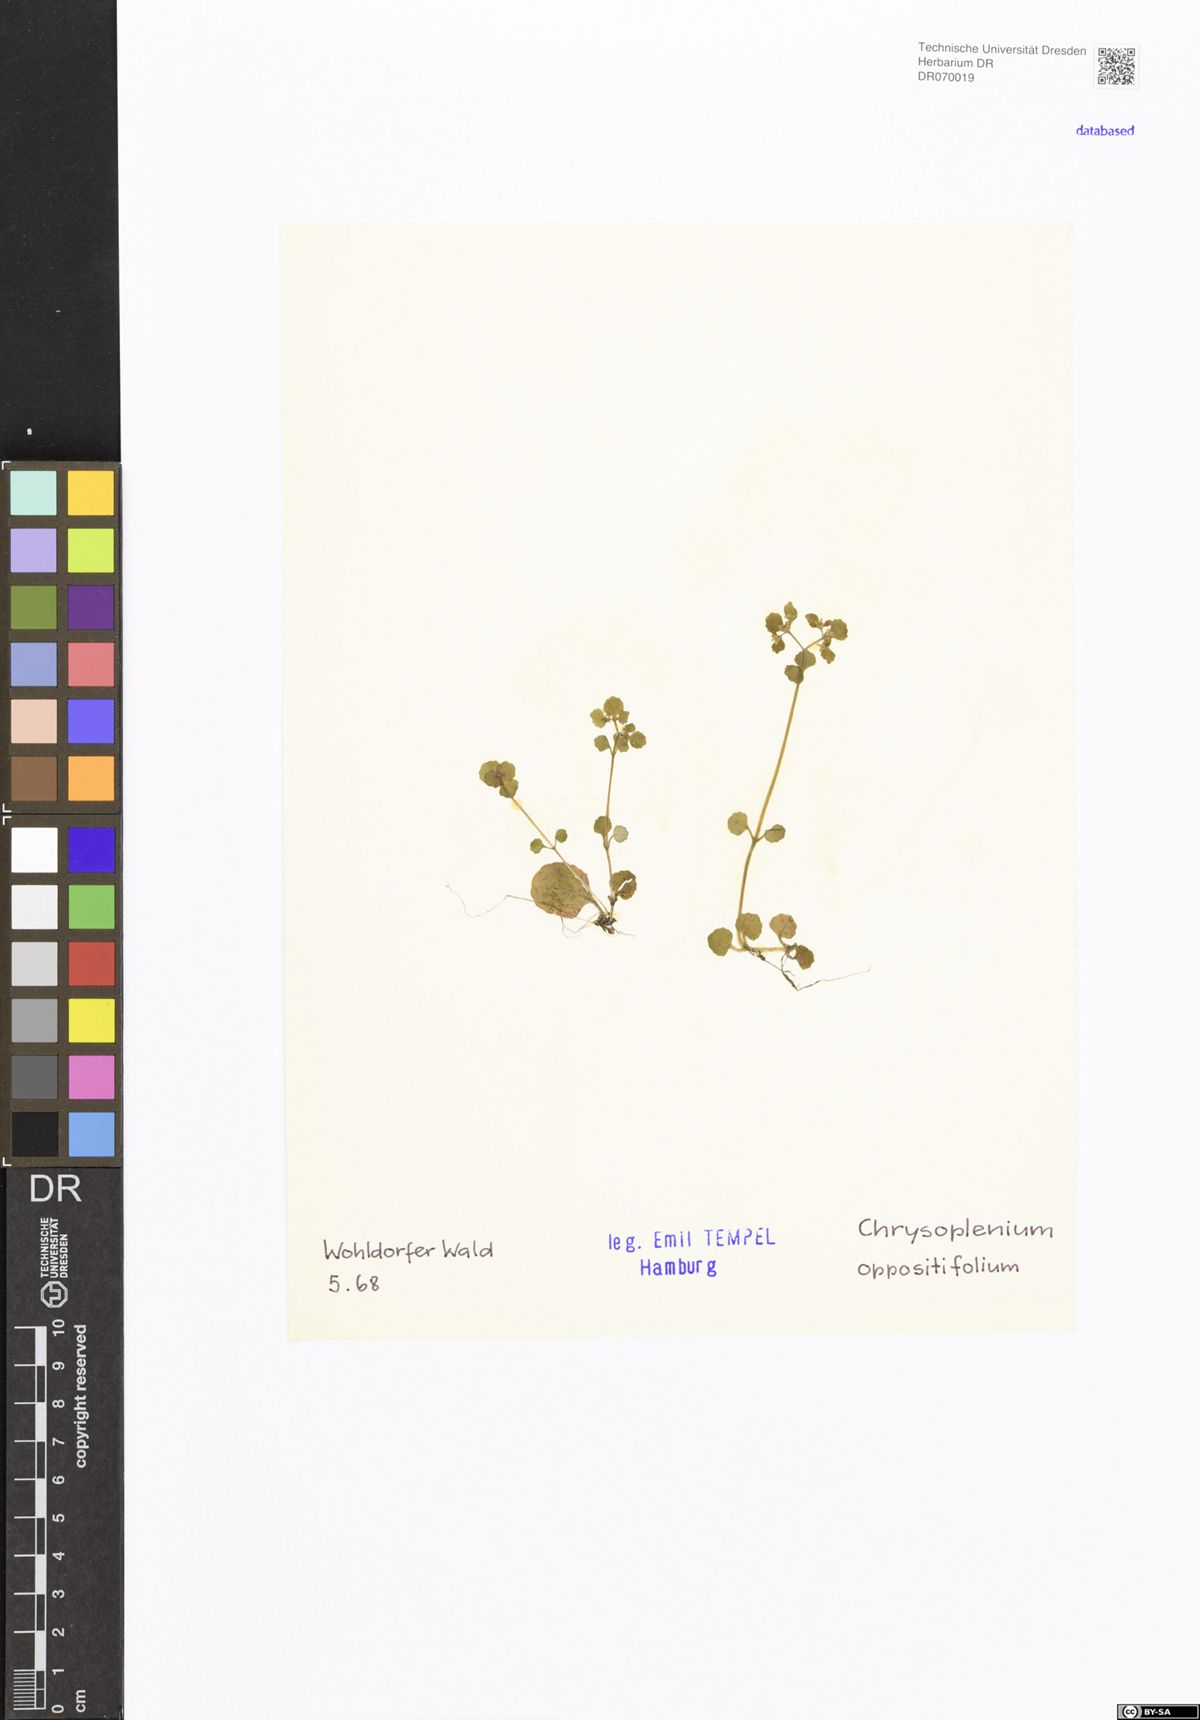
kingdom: Plantae
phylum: Tracheophyta
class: Magnoliopsida
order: Saxifragales
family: Saxifragaceae
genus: Chrysosplenium
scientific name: Chrysosplenium oppositifolium
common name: Opposite-leaved golden-saxifrage
